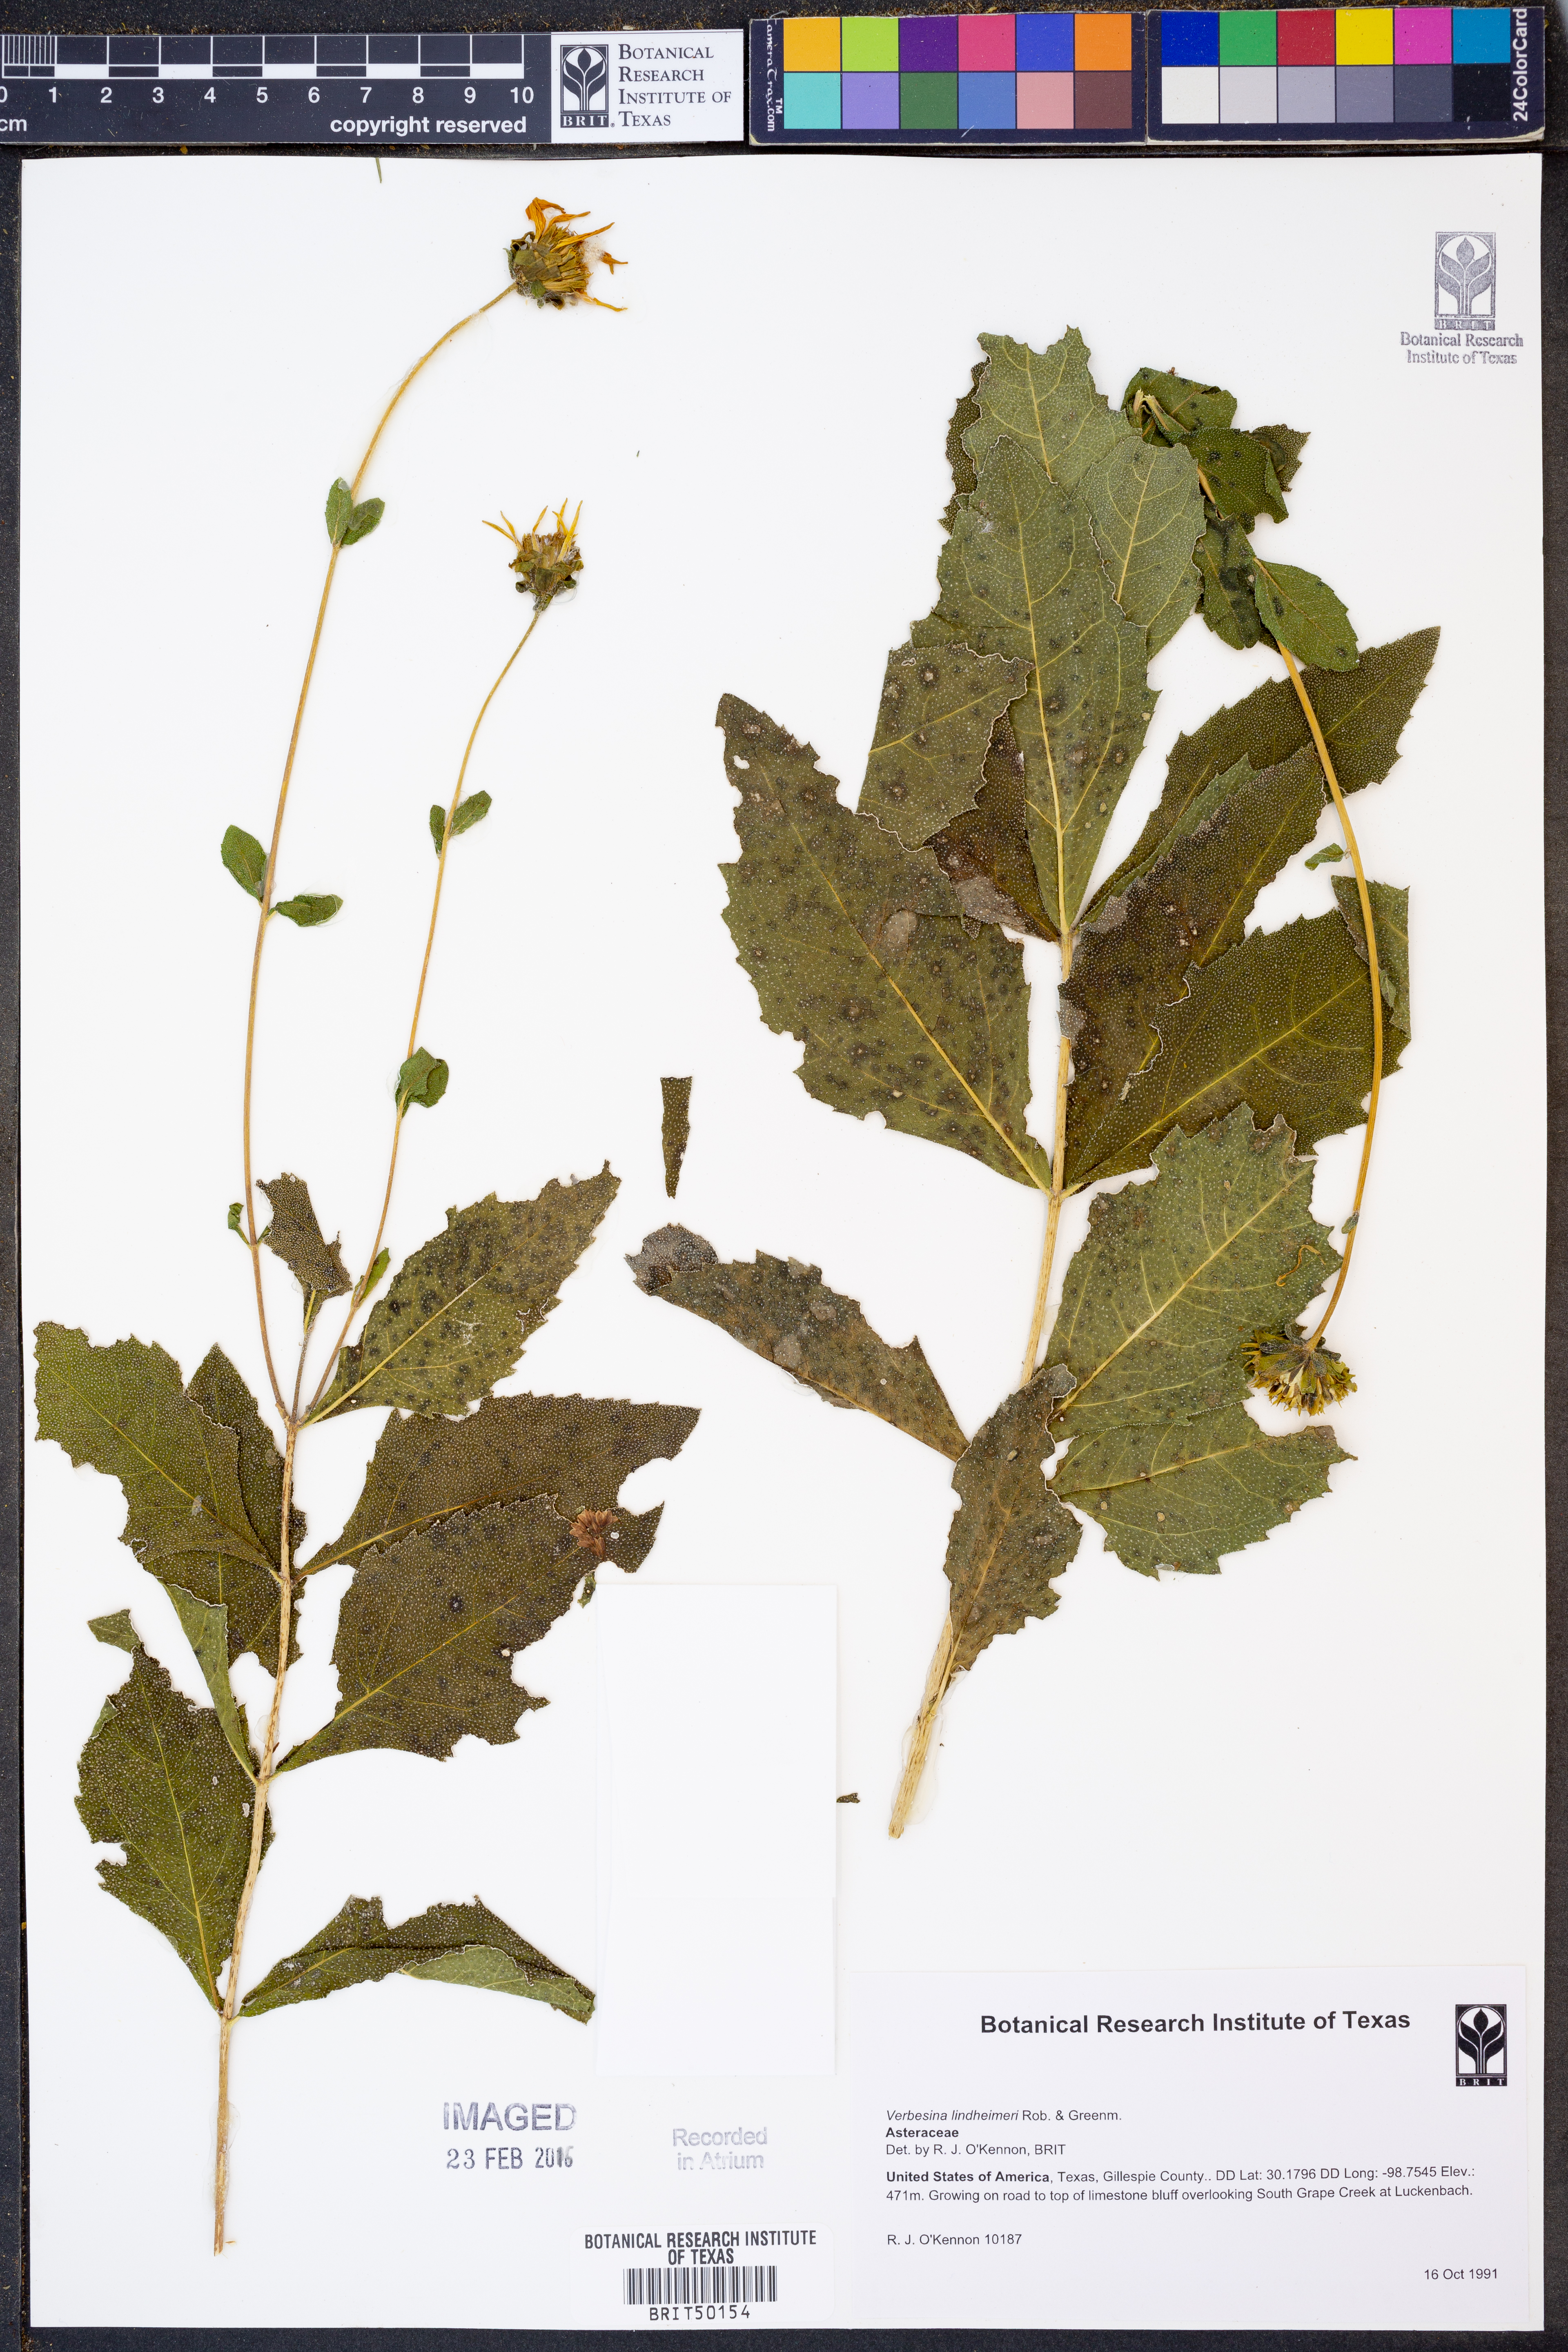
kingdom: Plantae
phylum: Tracheophyta
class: Magnoliopsida
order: Asterales
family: Asteraceae
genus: Verbesina
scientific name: Verbesina lindheimeri
